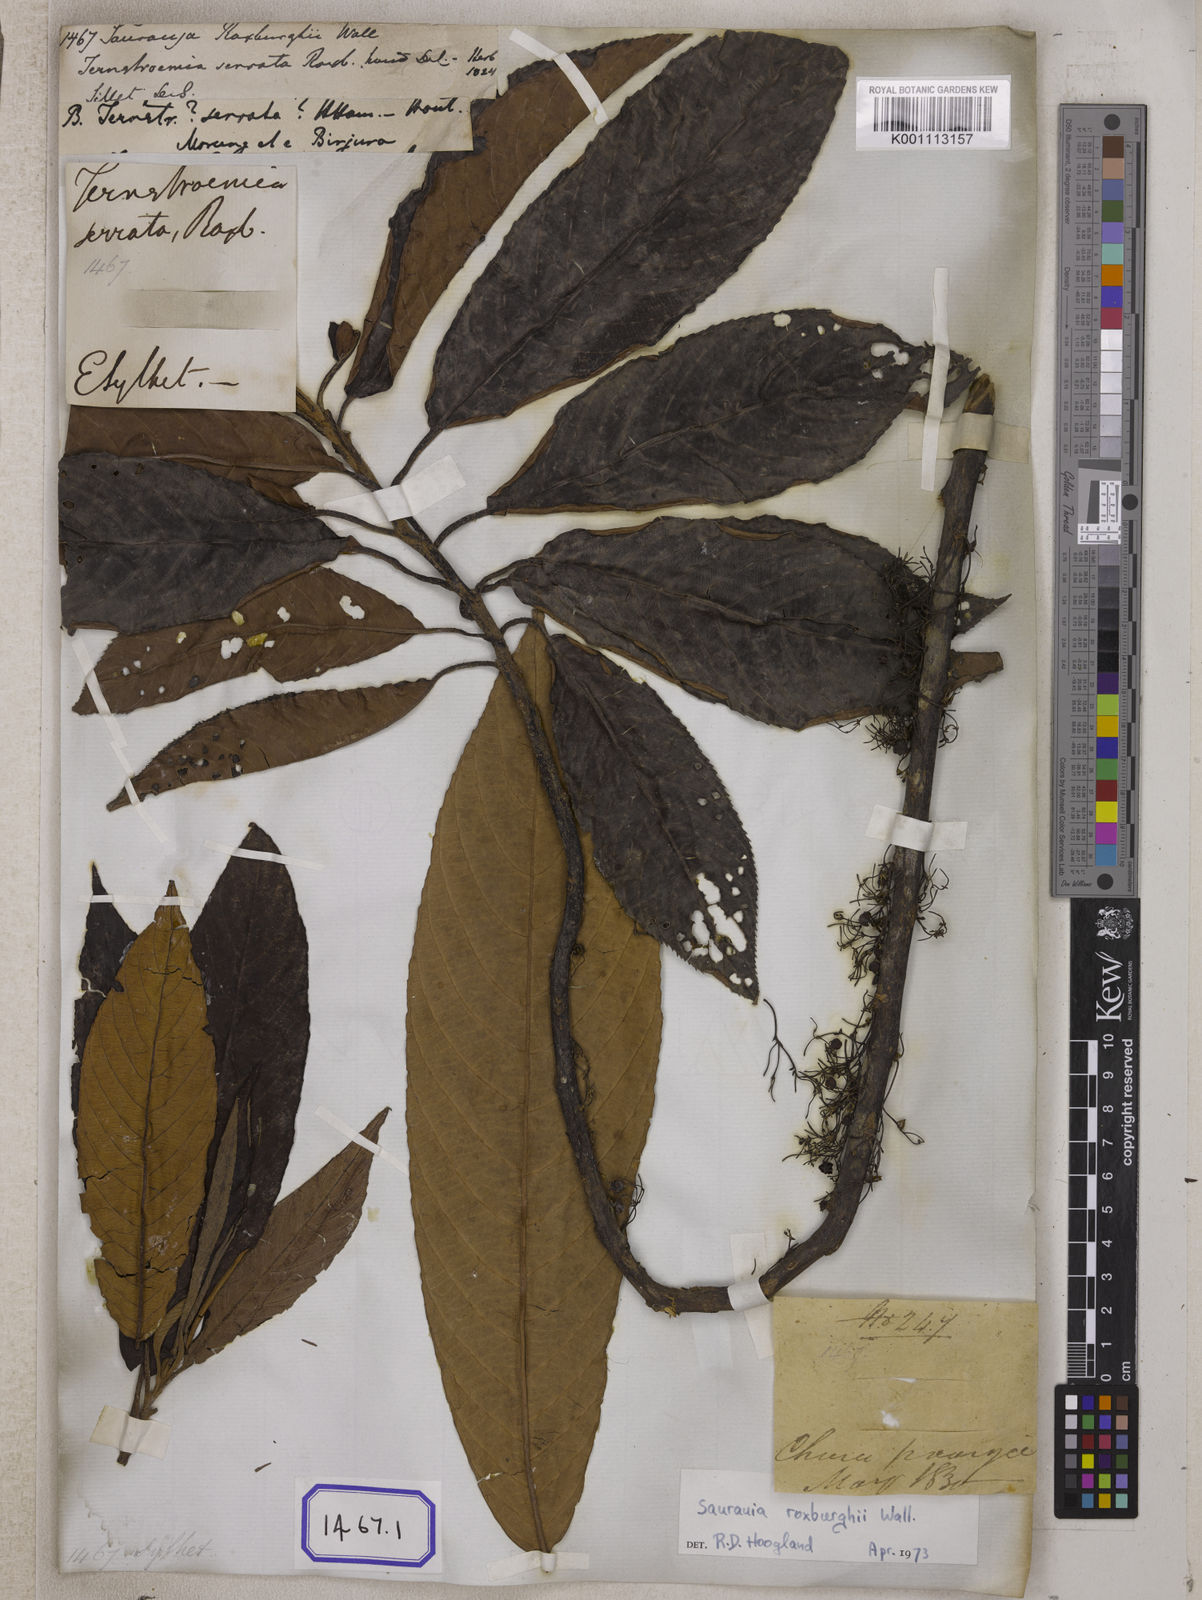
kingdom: Plantae
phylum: Tracheophyta
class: Magnoliopsida
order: Ericales
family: Actinidiaceae
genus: Saurauia
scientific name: Saurauia roxburghii
